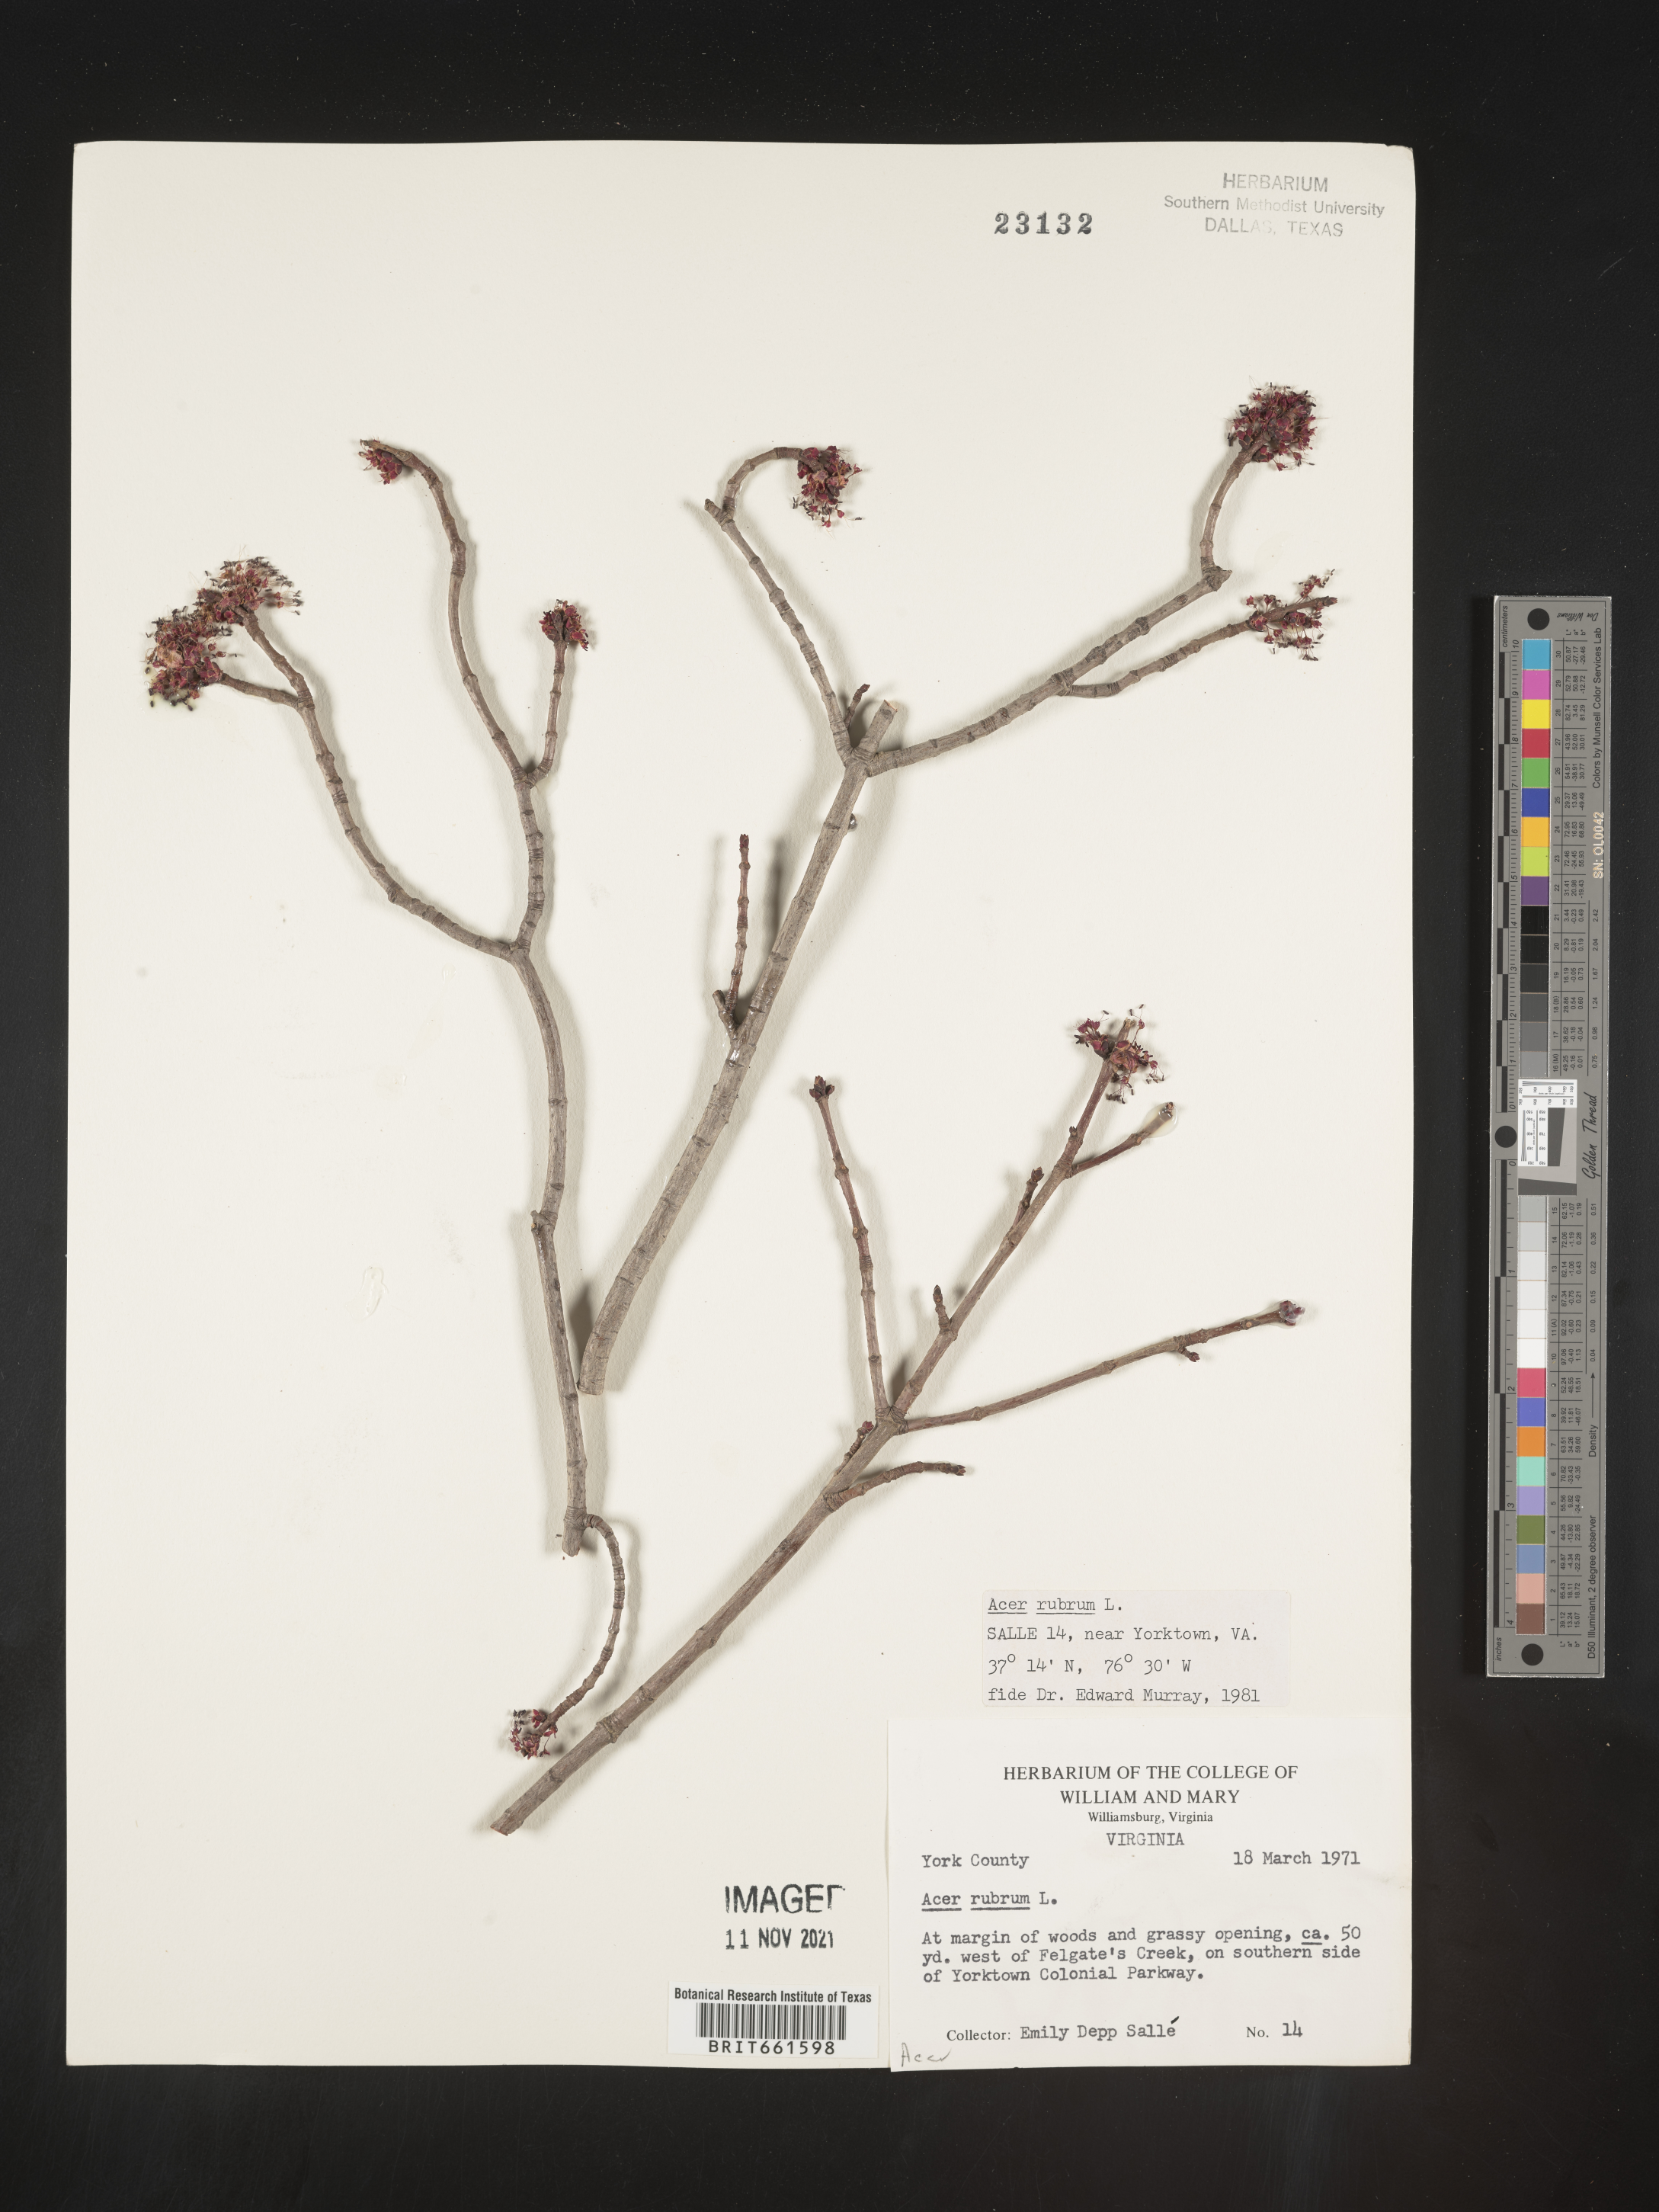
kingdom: Plantae
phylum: Tracheophyta
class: Magnoliopsida
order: Sapindales
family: Sapindaceae
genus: Acer
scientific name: Acer rubrum
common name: Red maple
